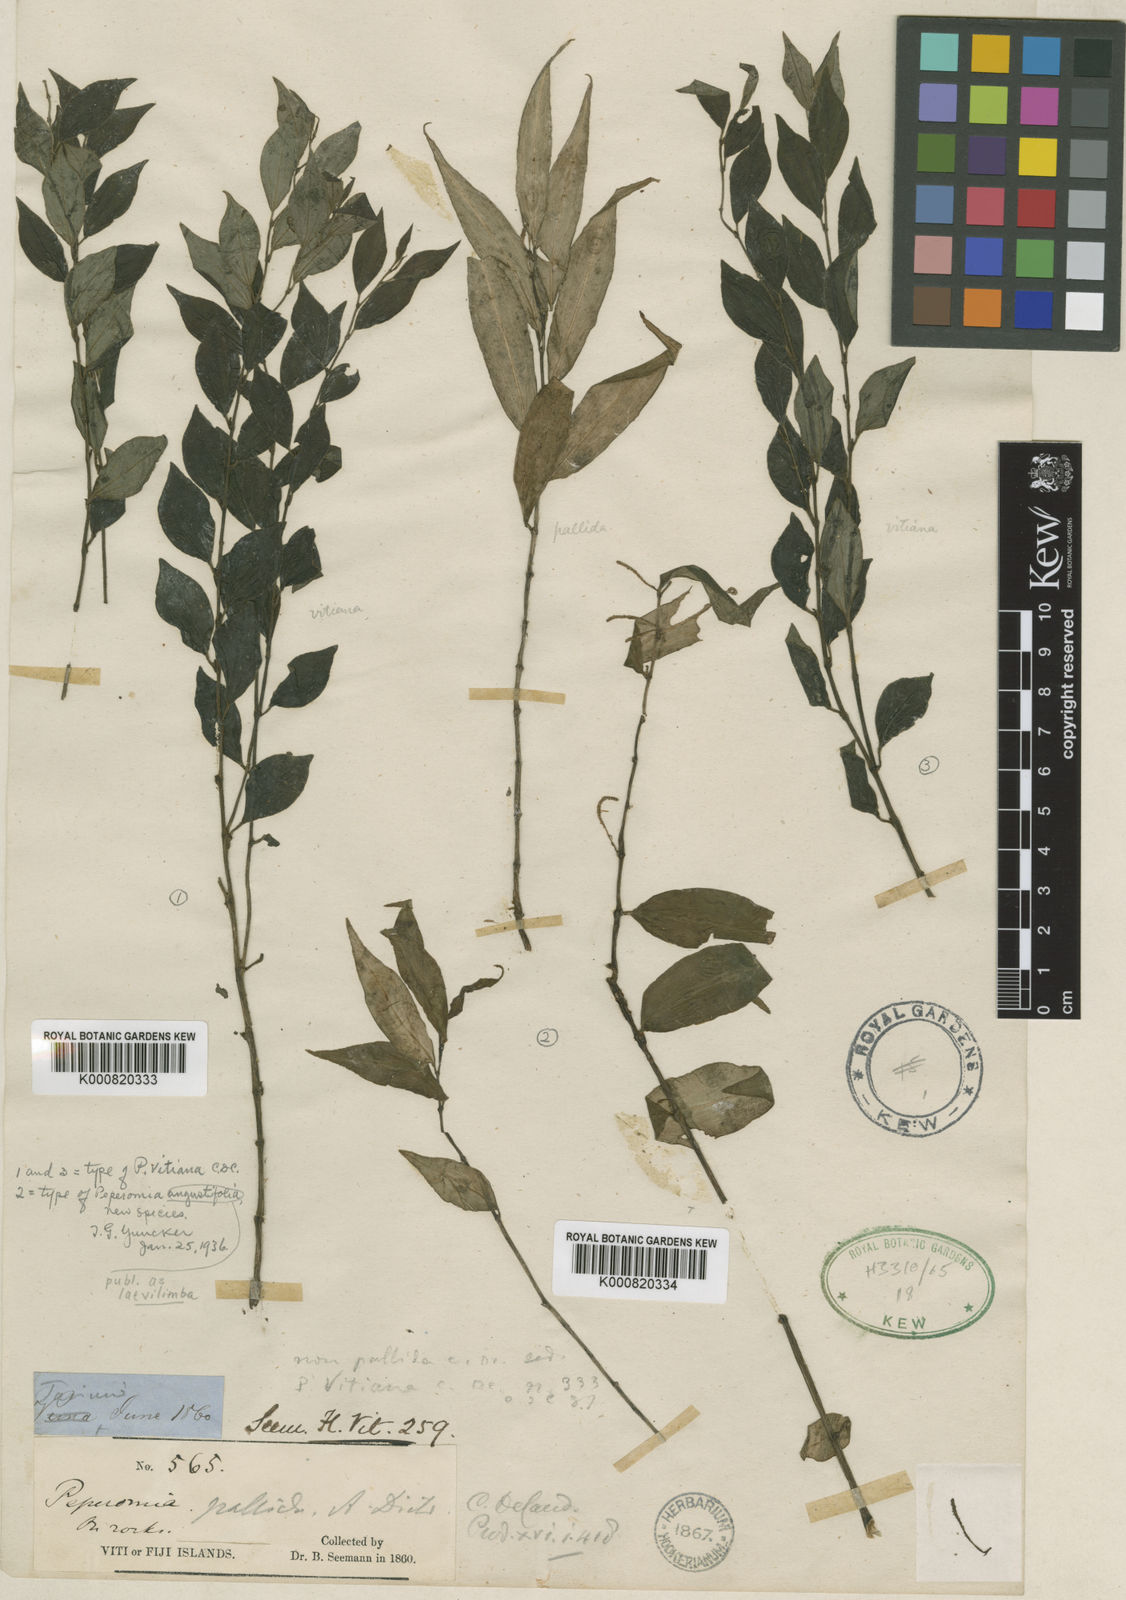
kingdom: Plantae
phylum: Tracheophyta
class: Magnoliopsida
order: Piperales
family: Piperaceae
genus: Peperomia
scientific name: Peperomia laevilimba
